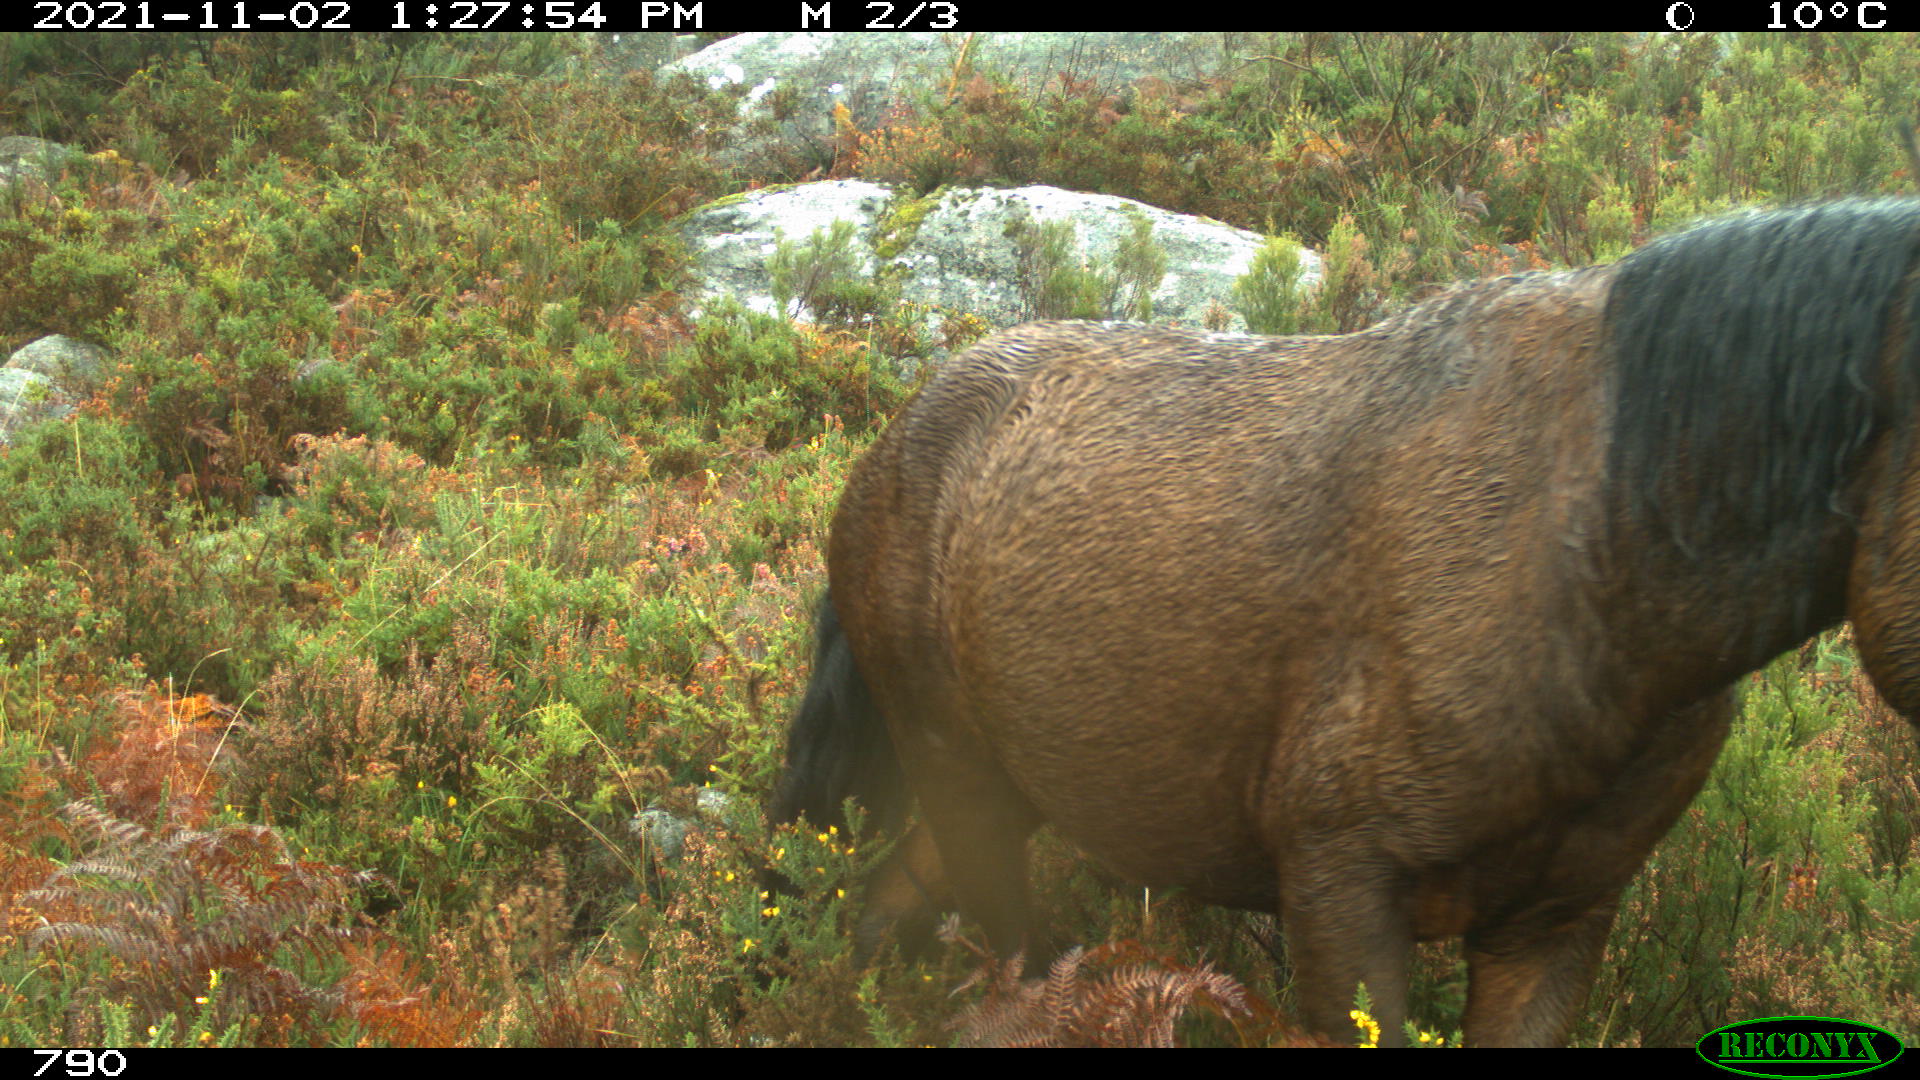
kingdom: Animalia
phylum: Chordata
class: Mammalia
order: Perissodactyla
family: Equidae
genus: Equus
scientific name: Equus caballus
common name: Horse
